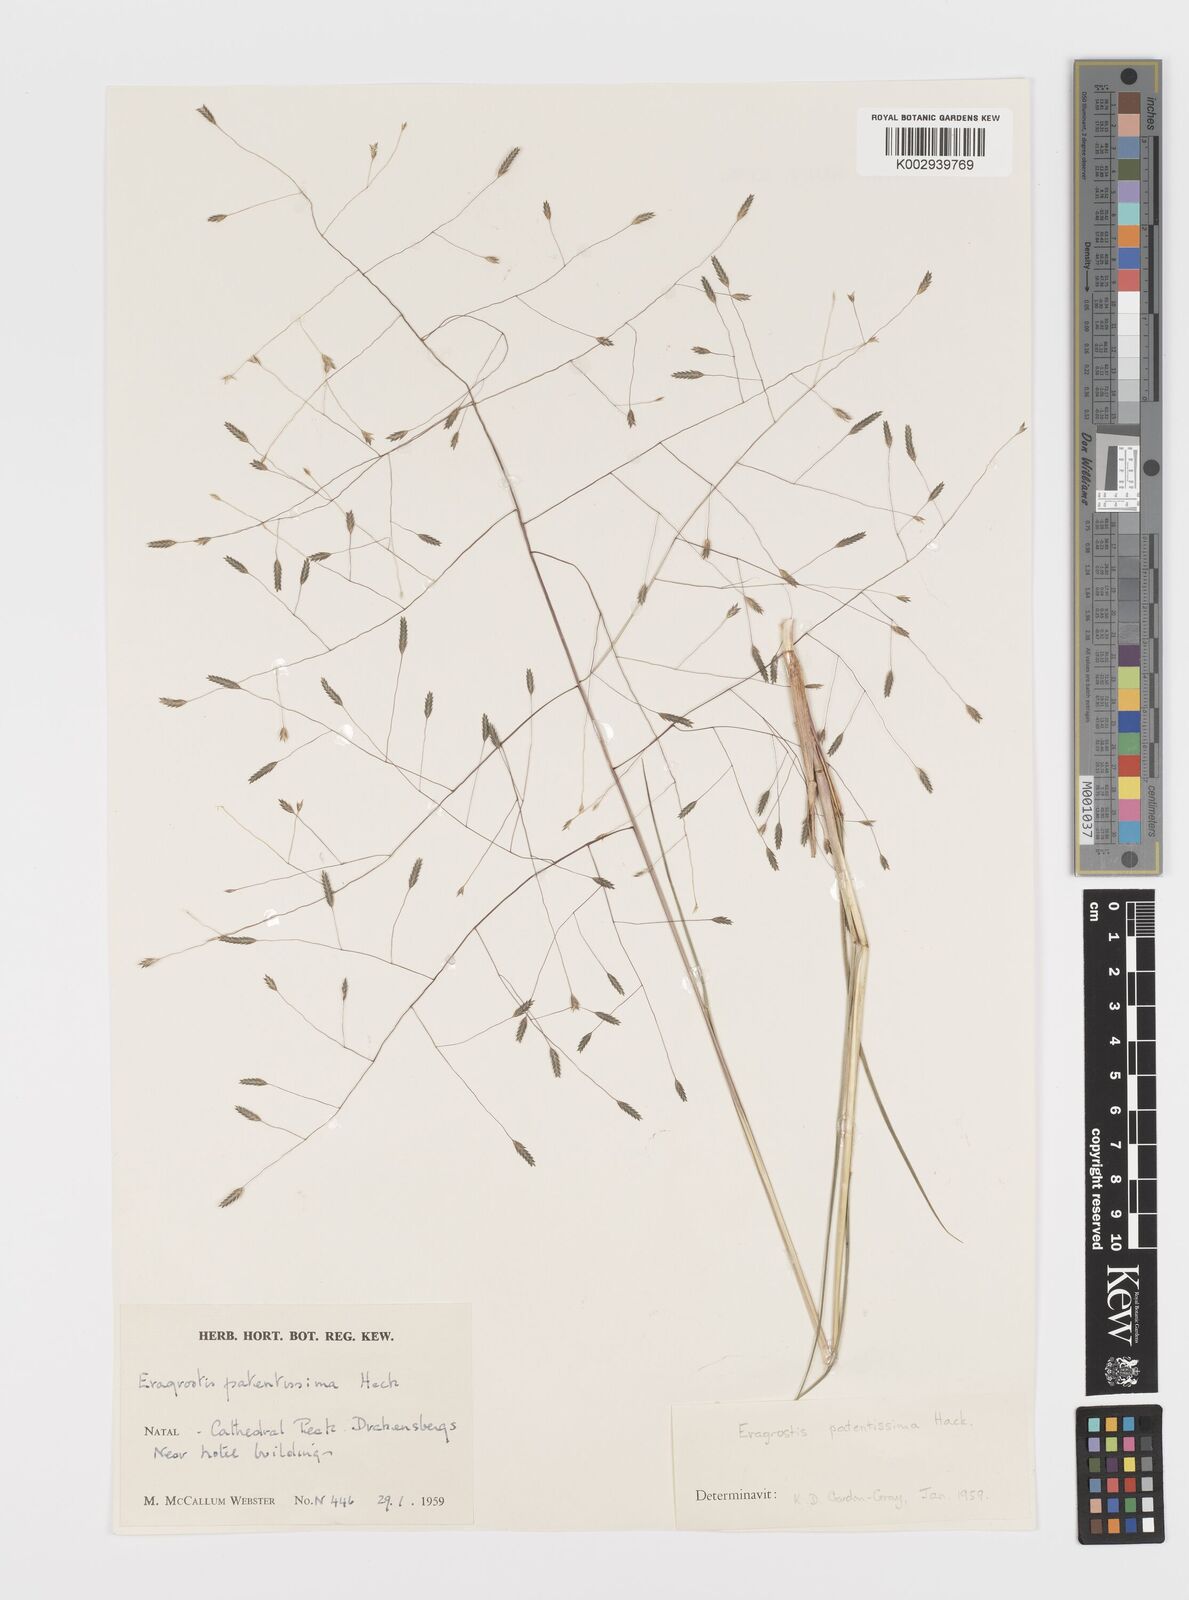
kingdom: Plantae
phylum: Tracheophyta
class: Liliopsida
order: Poales
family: Poaceae
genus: Eragrostis
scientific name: Eragrostis patentissima
